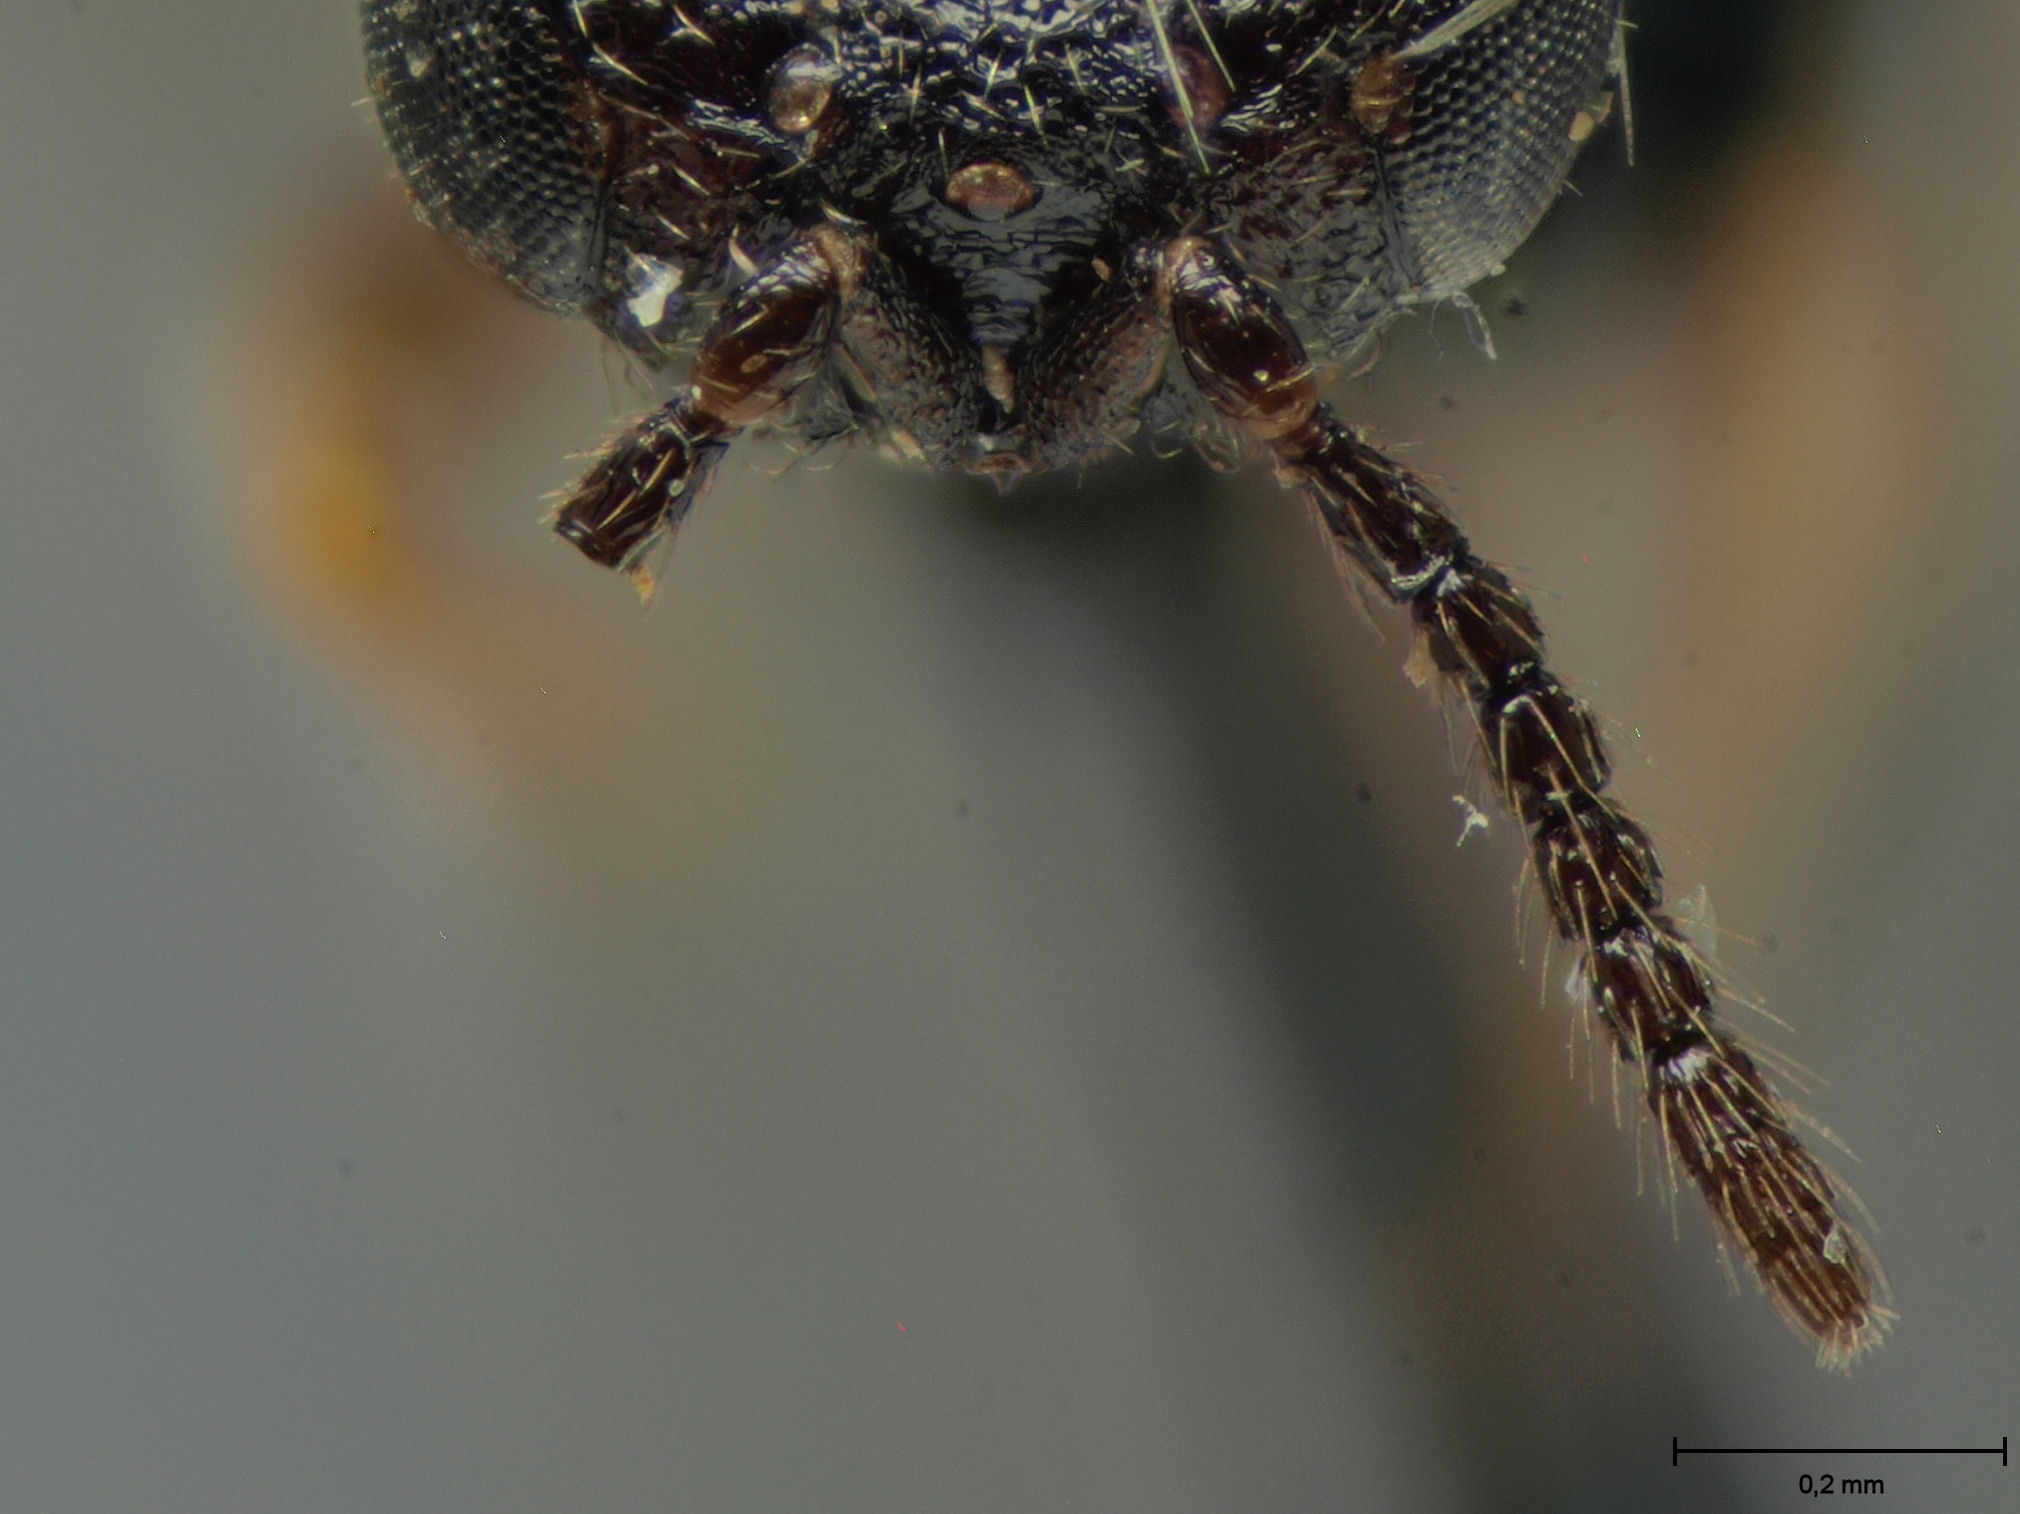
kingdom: Animalia
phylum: Arthropoda
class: Insecta
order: Hymenoptera
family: Eurytomidae
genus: Tetramesa
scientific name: Tetramesa giraudi
